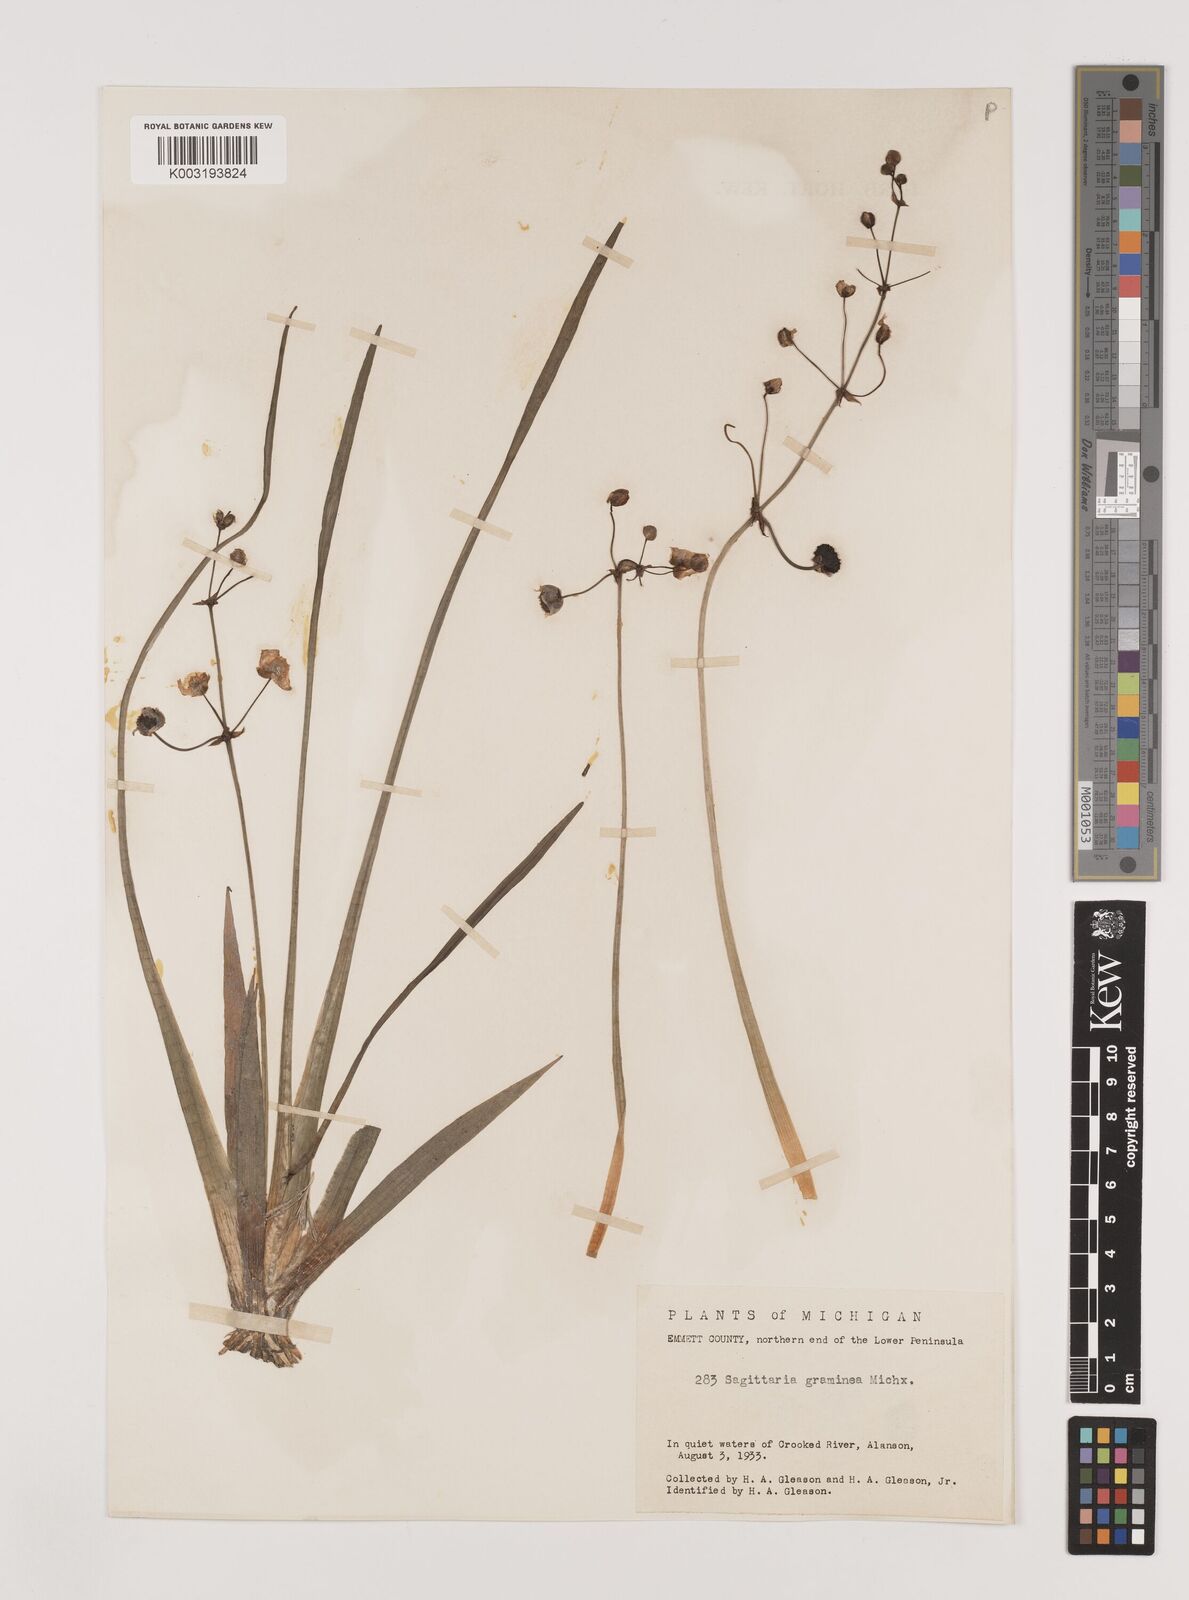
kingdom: Plantae
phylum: Tracheophyta
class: Liliopsida
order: Alismatales
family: Alismataceae
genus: Sagittaria
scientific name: Sagittaria graminea
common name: Grass-leaved arrowhead
